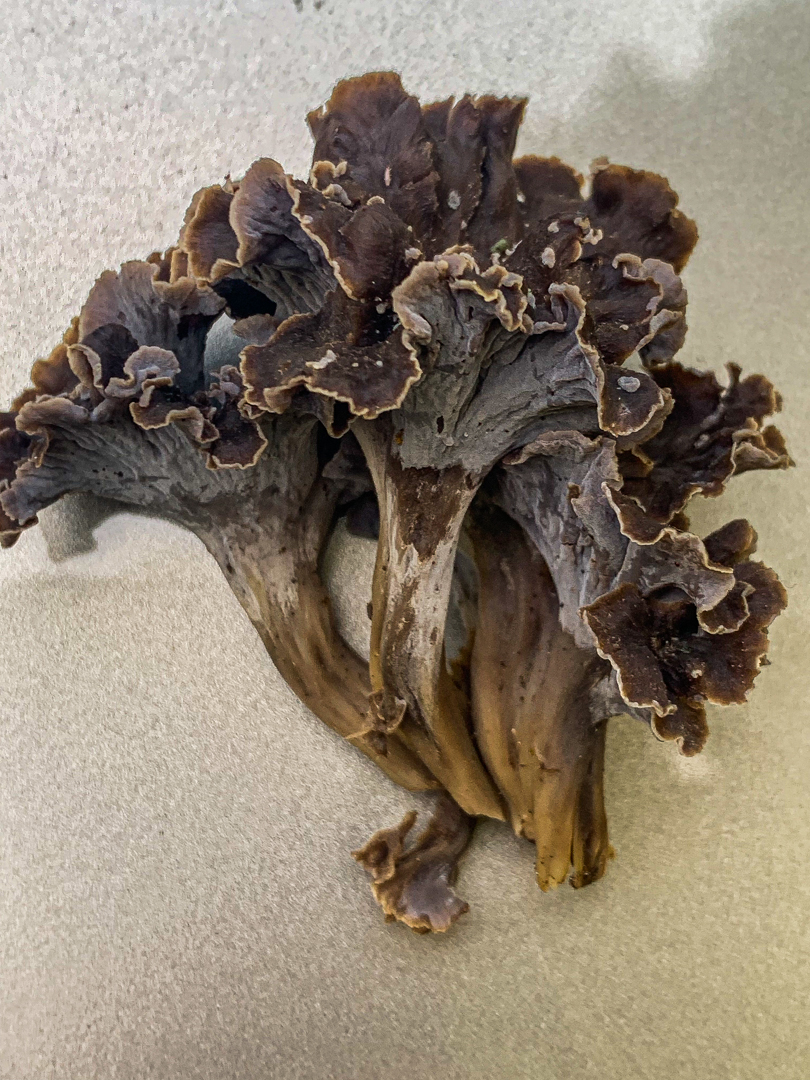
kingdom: Fungi
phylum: Basidiomycota
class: Agaricomycetes
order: Cantharellales
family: Hydnaceae
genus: Craterellus
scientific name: Craterellus undulatus
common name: liden kantarel
